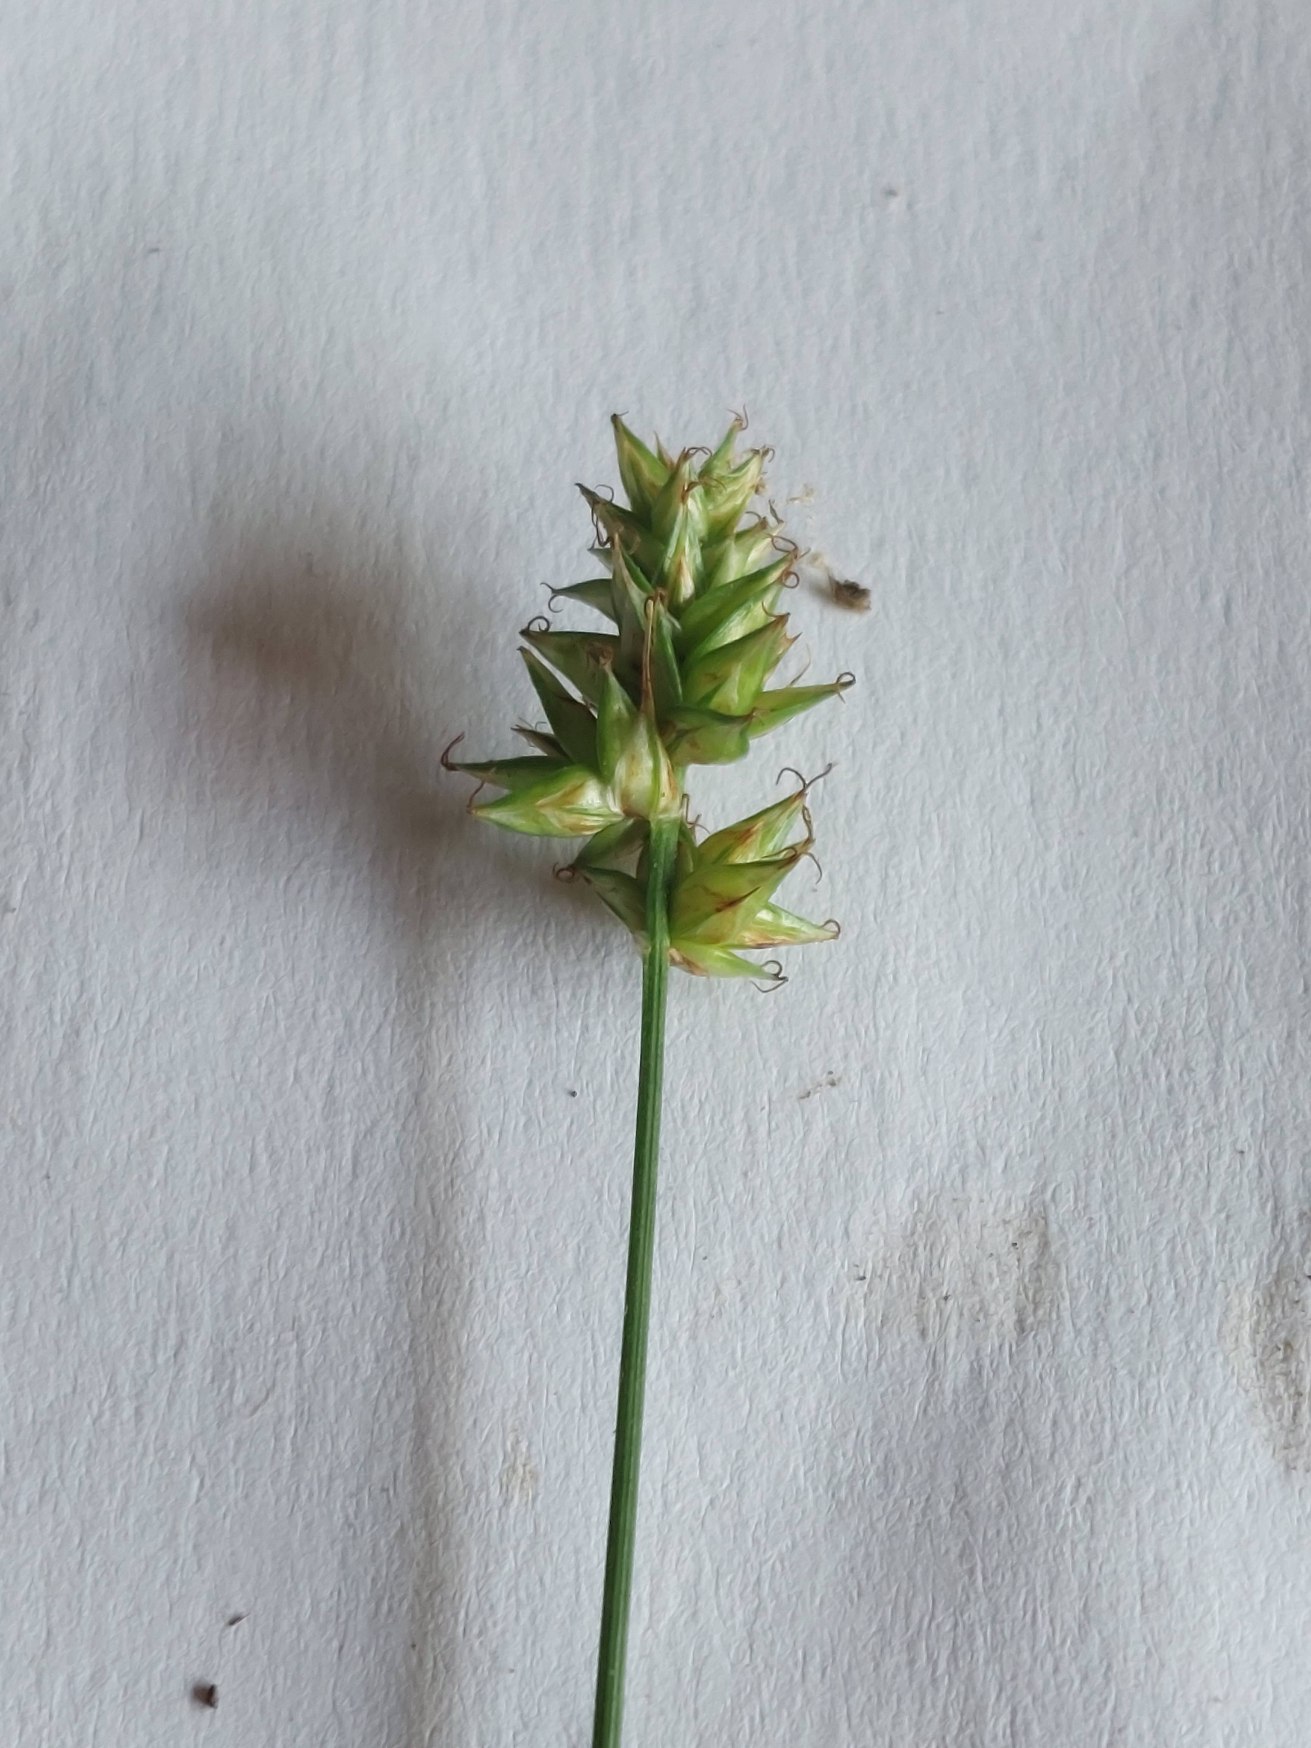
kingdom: Plantae
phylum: Tracheophyta
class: Liliopsida
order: Poales
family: Cyperaceae
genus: Carex
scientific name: Carex pairae
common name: Pigget star
